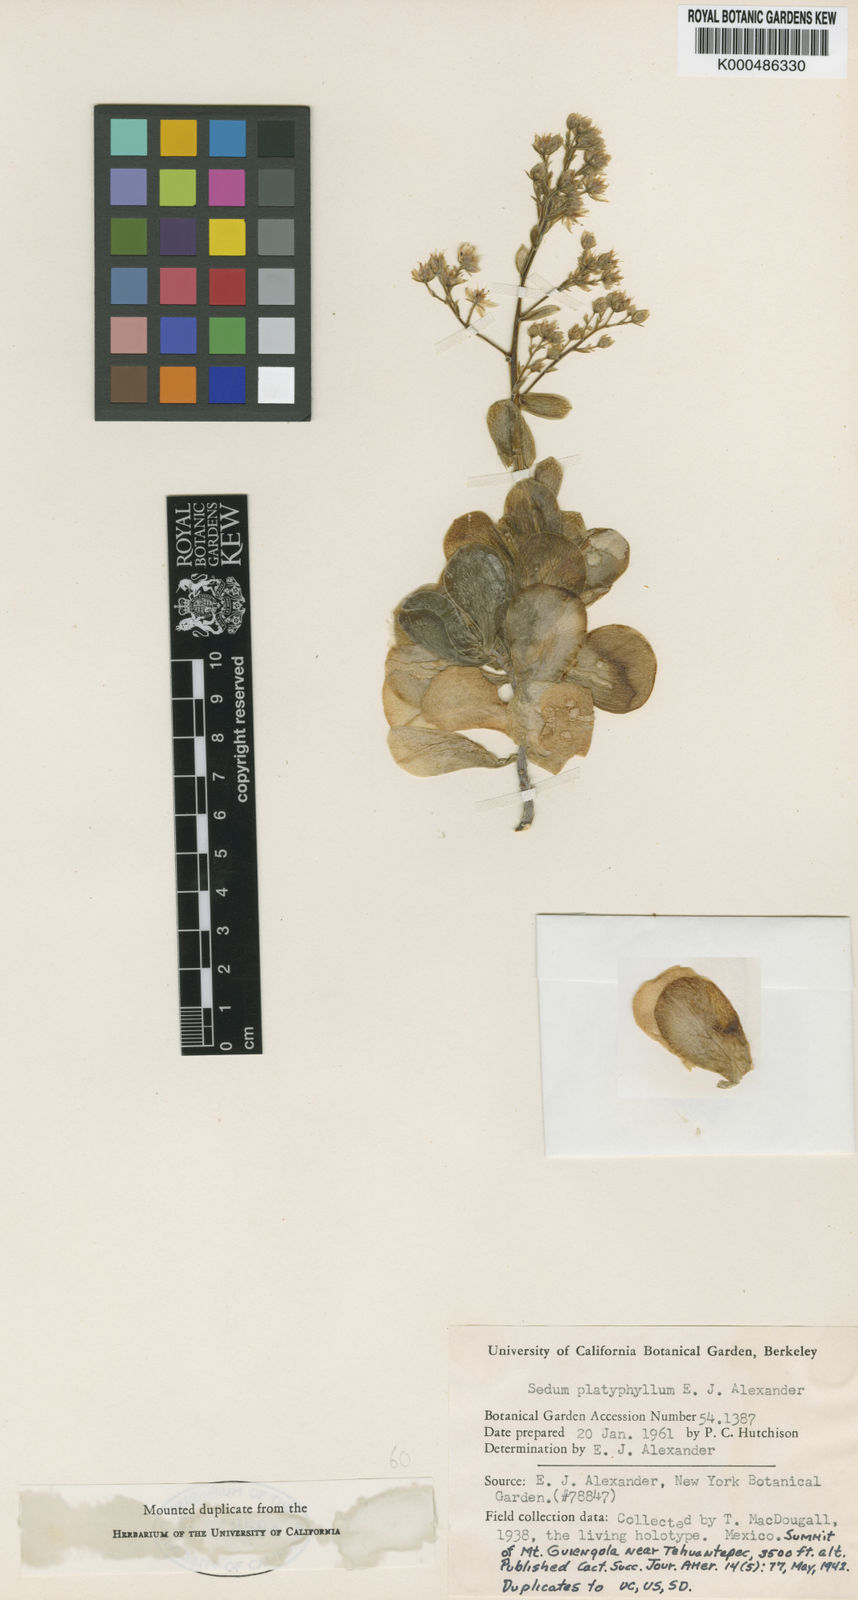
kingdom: Plantae
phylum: Tracheophyta
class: Magnoliopsida
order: Saxifragales
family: Crassulaceae
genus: Sedum
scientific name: Sedum
